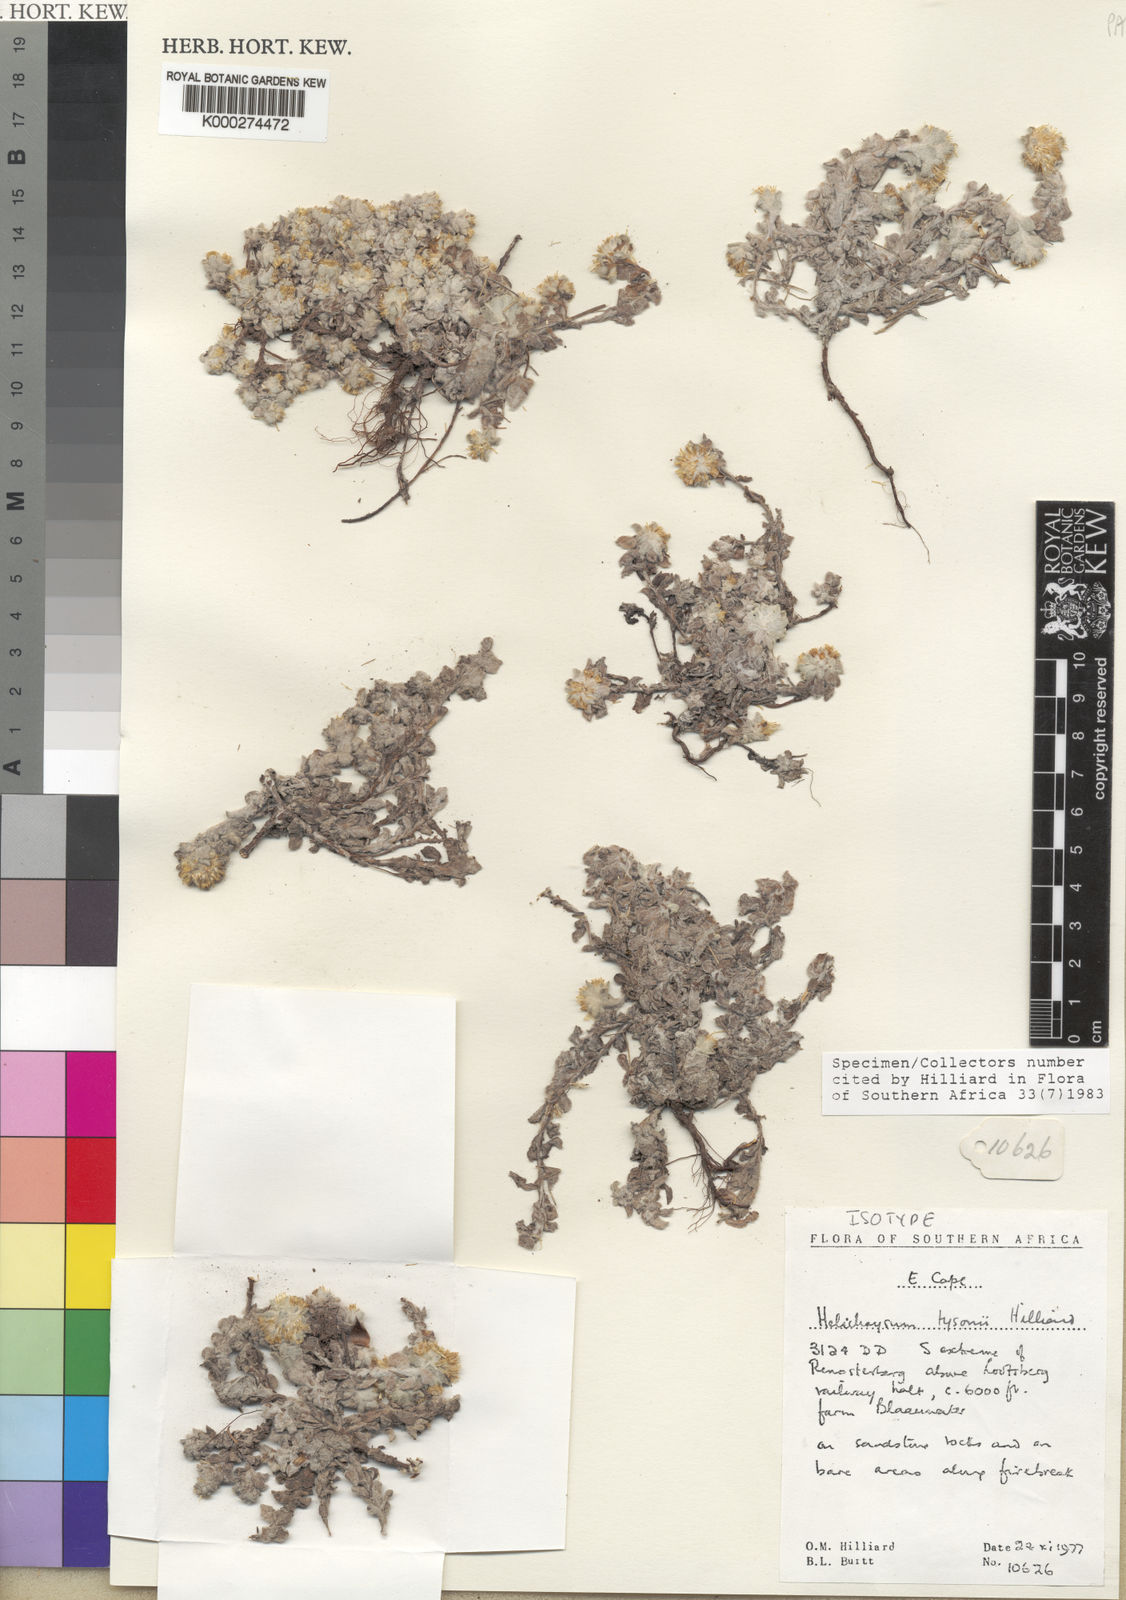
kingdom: Plantae
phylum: Tracheophyta
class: Magnoliopsida
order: Asterales
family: Asteraceae
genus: Helichrysum
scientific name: Helichrysum tysonii
